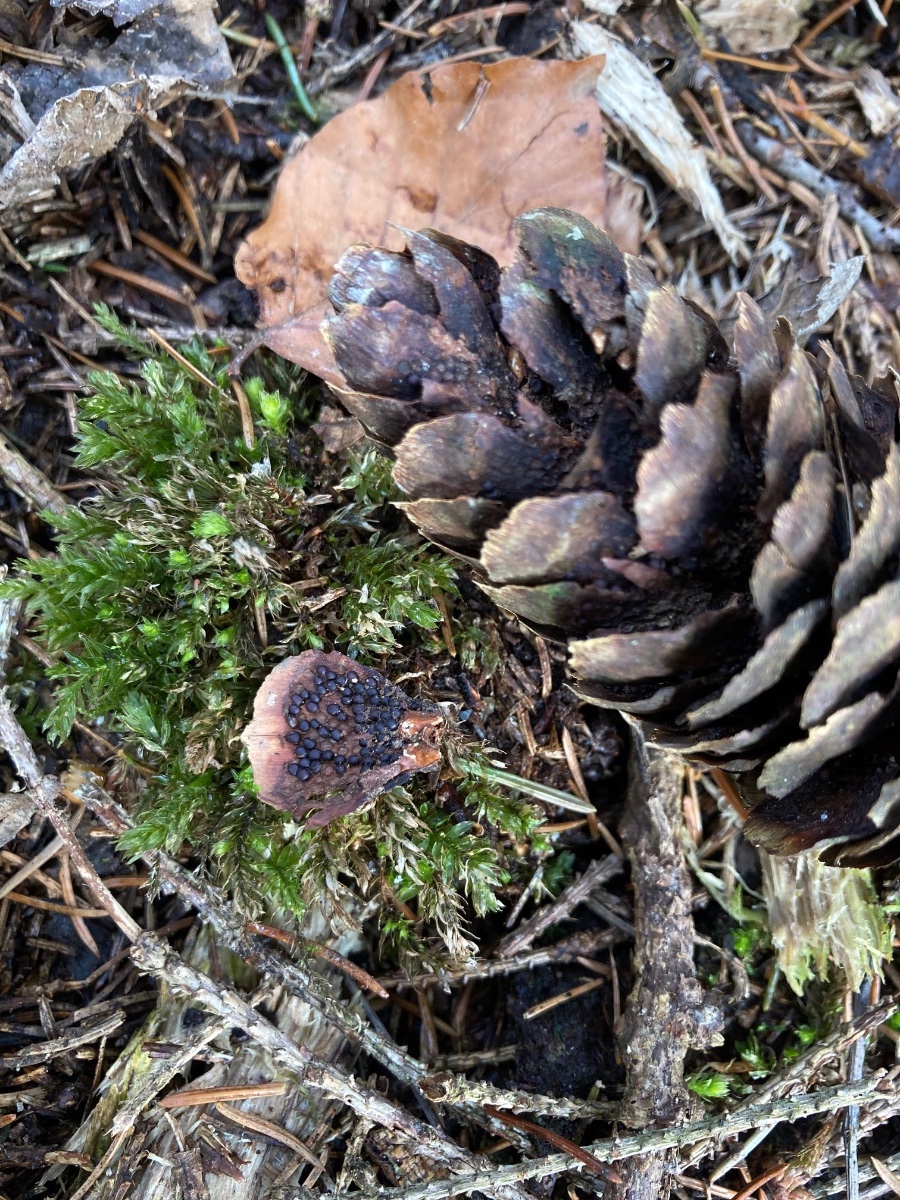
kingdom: Fungi
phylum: Basidiomycota
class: Pucciniomycetes
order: Pucciniales
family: Pucciniastraceae
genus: Thekopsora
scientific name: Thekopsora areolata
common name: grankogle-nålerust
